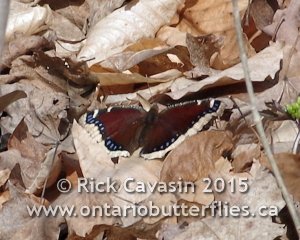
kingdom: Animalia
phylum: Arthropoda
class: Insecta
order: Lepidoptera
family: Nymphalidae
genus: Nymphalis
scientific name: Nymphalis antiopa
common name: Mourning Cloak
